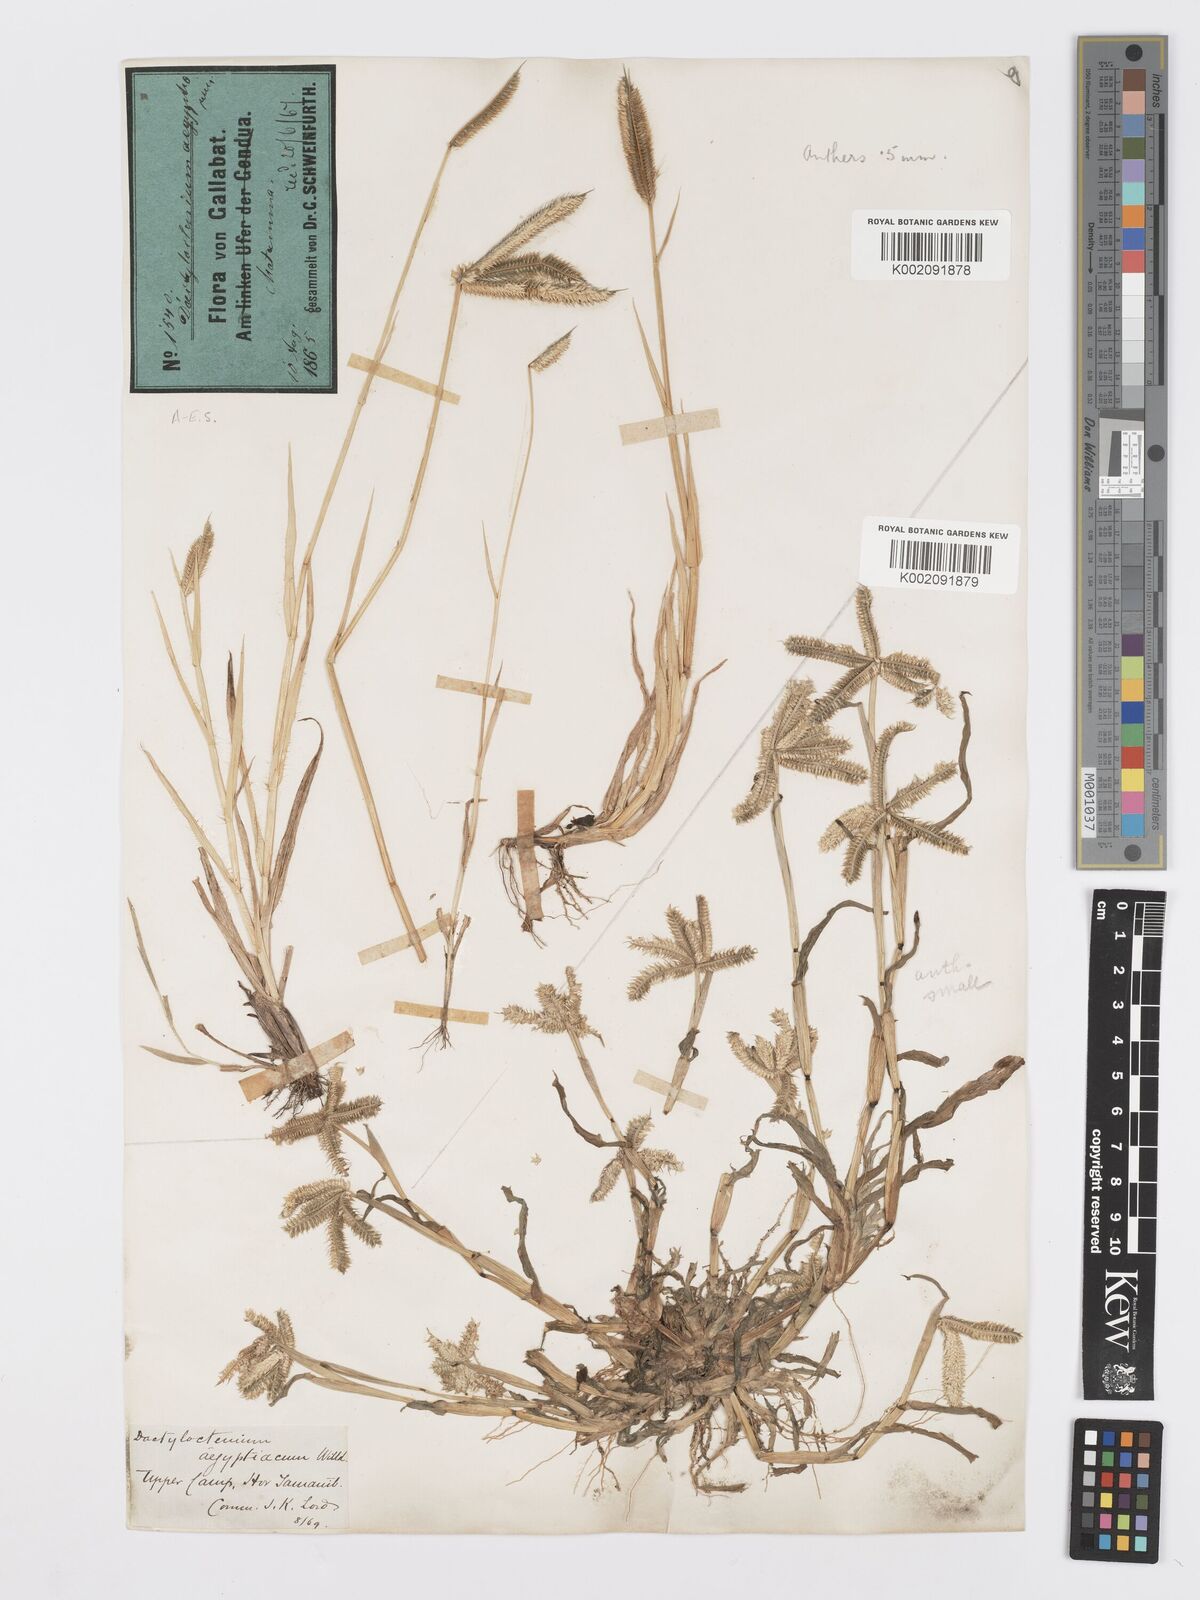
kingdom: Plantae
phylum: Tracheophyta
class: Liliopsida
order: Poales
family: Poaceae
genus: Dactyloctenium
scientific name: Dactyloctenium aegyptium
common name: Egyptian grass
